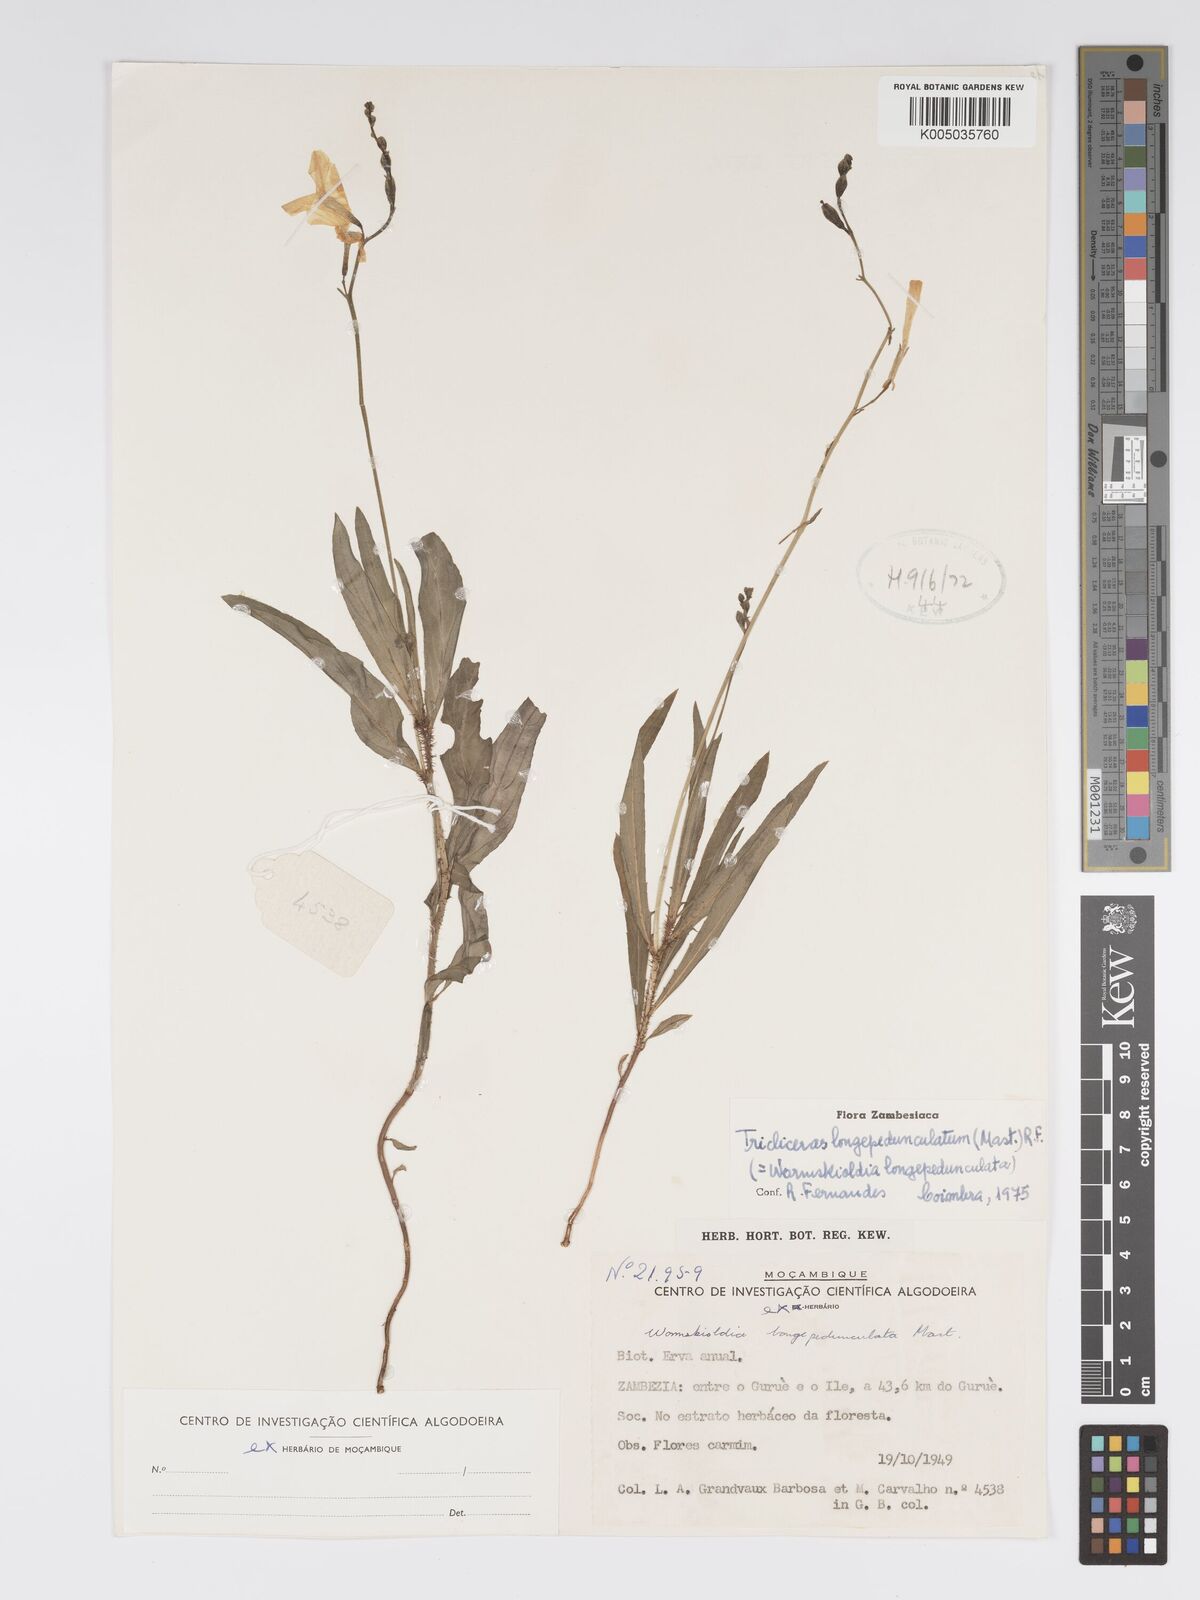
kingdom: Plantae
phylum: Tracheophyta
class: Magnoliopsida
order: Malpighiales
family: Turneraceae
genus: Tricliceras
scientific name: Tricliceras longepedunculatum
